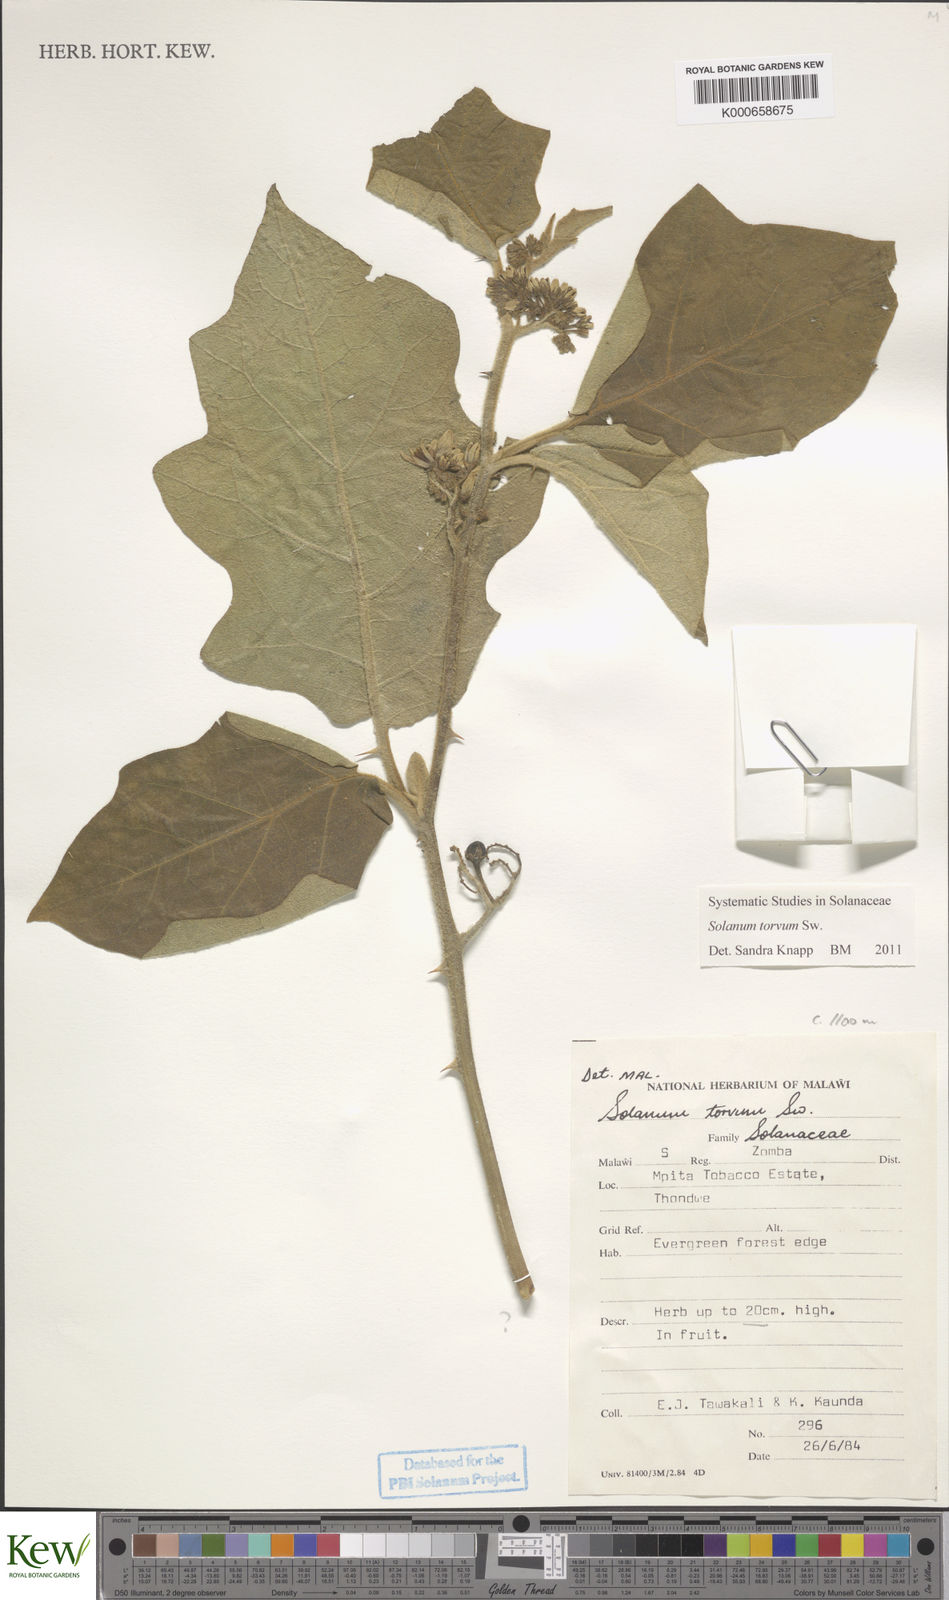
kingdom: Plantae
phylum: Tracheophyta
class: Magnoliopsida
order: Solanales
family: Solanaceae
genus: Solanum
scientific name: Solanum torvum
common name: Turkey berry
